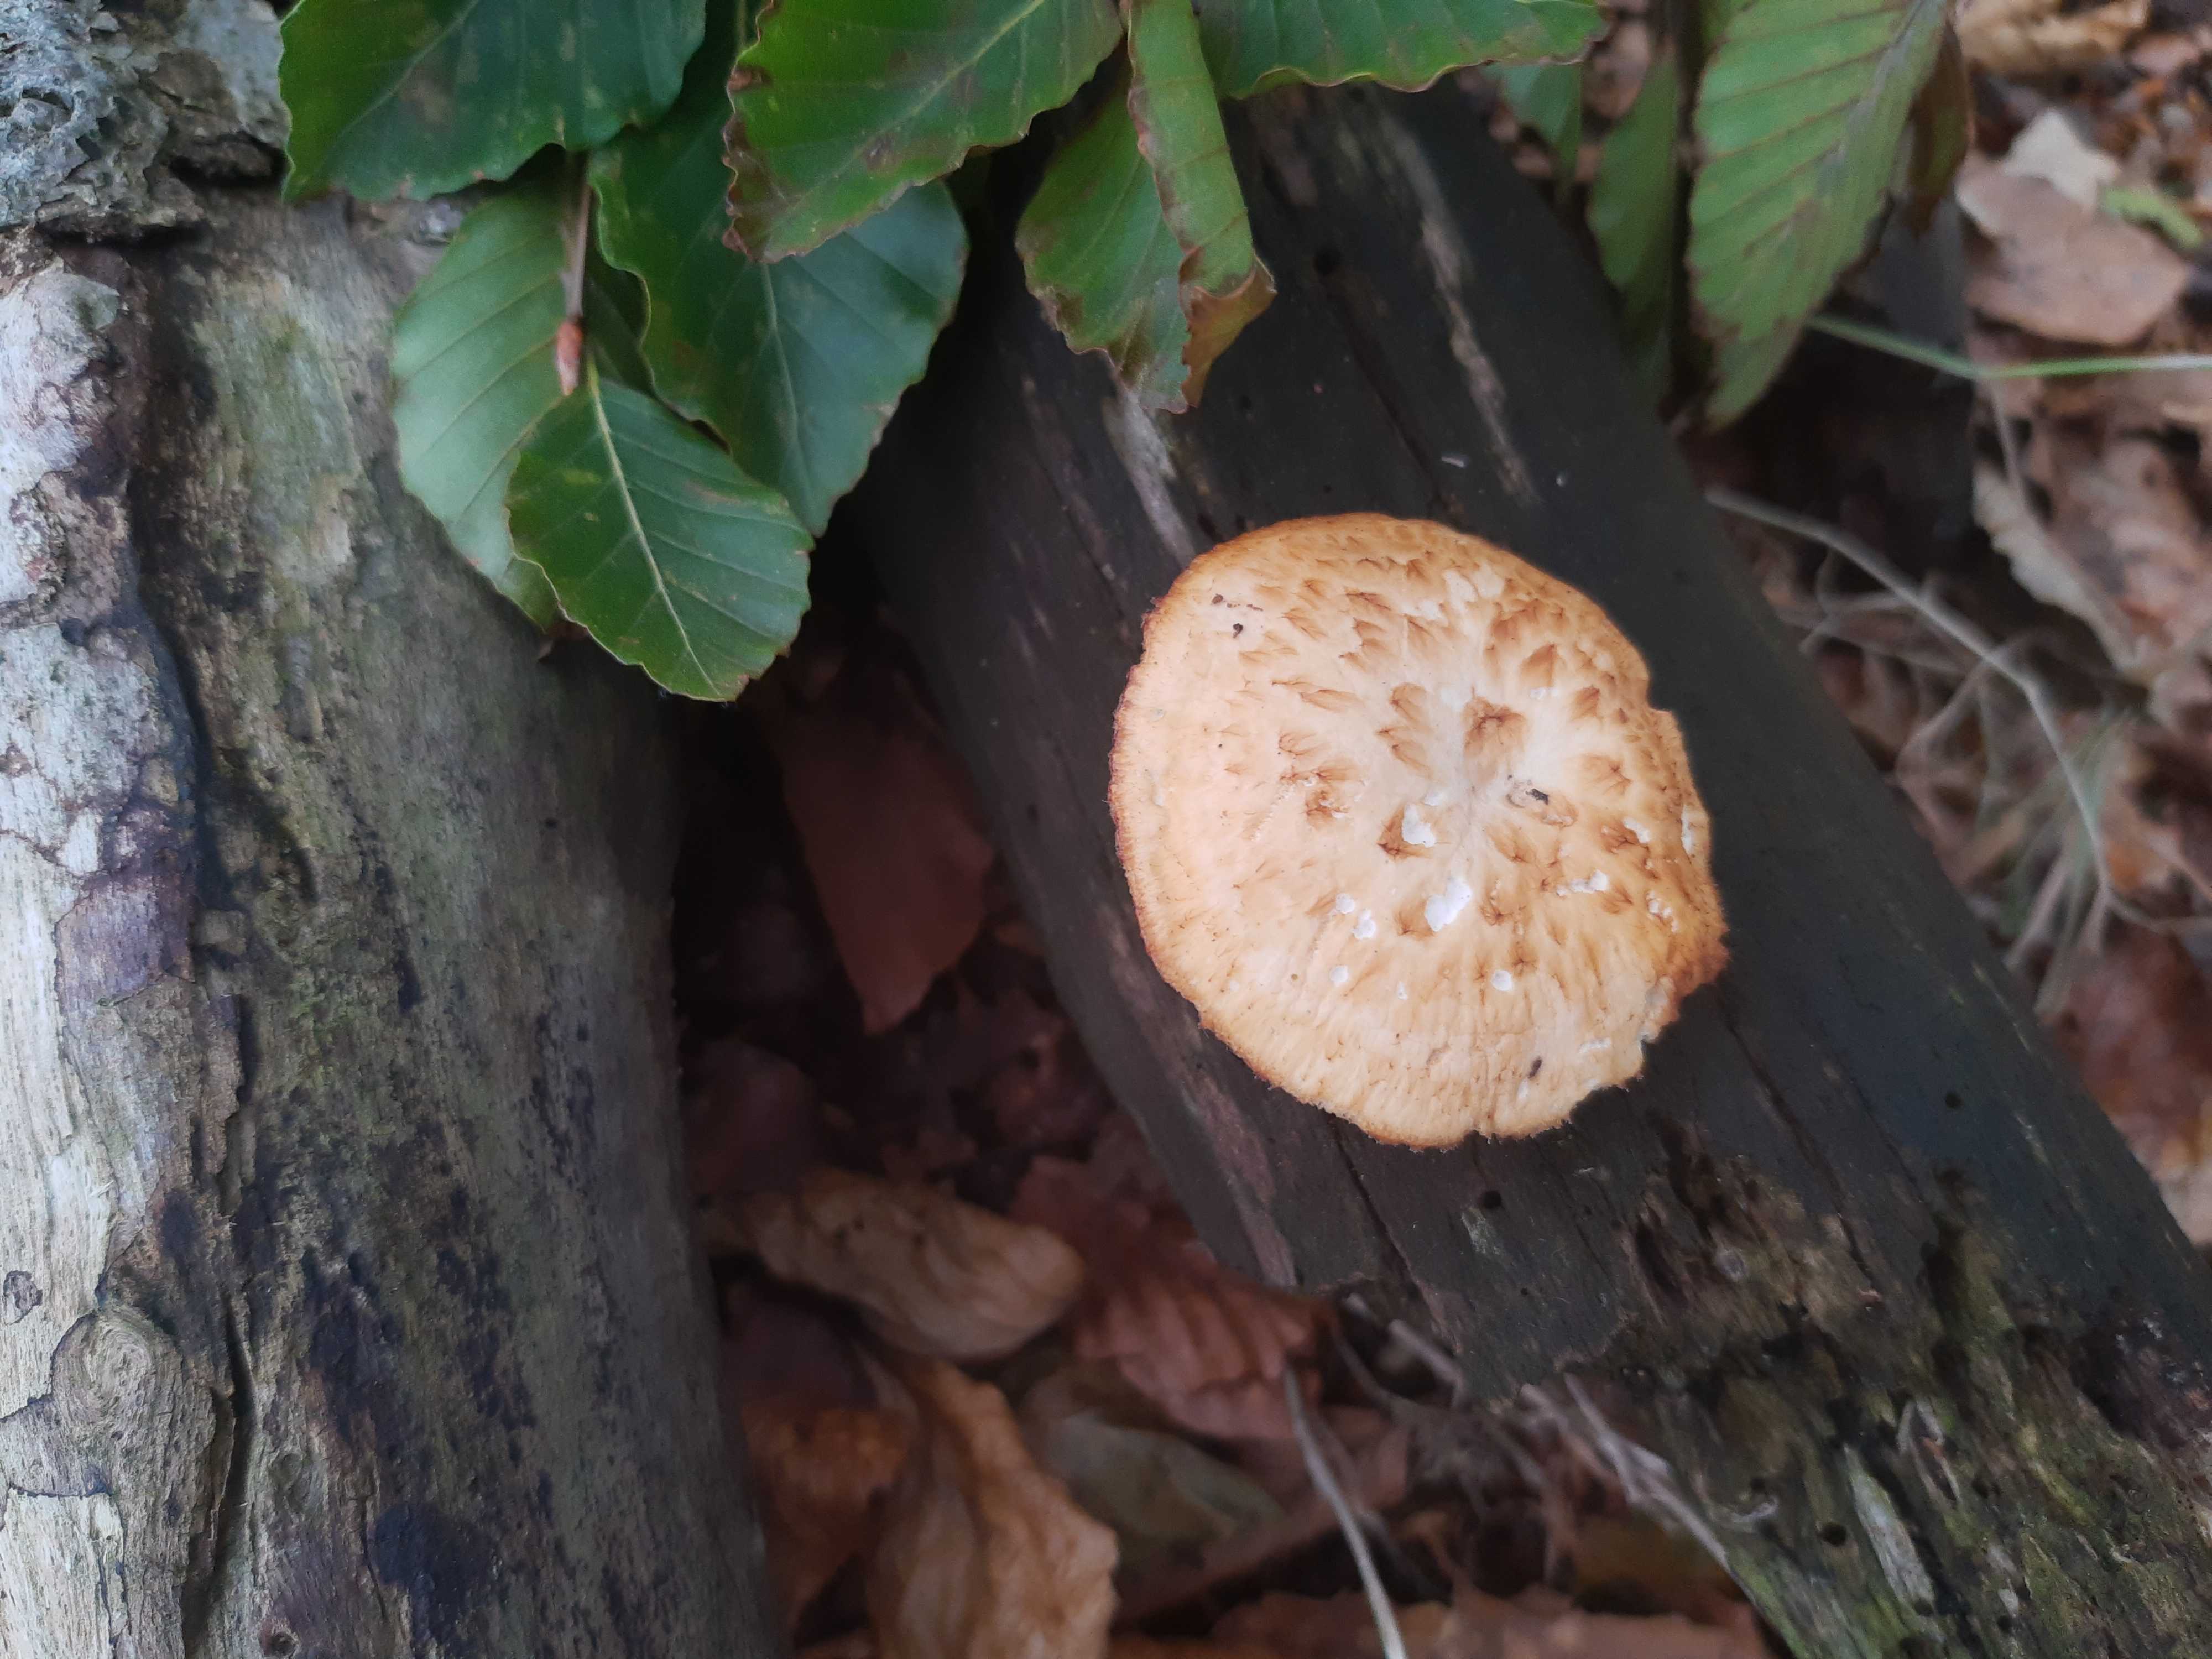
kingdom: Fungi
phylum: Basidiomycota
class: Agaricomycetes
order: Polyporales
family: Polyporaceae
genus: Polyporus
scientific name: Polyporus tuberaster
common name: knoldet stilkporesvamp
